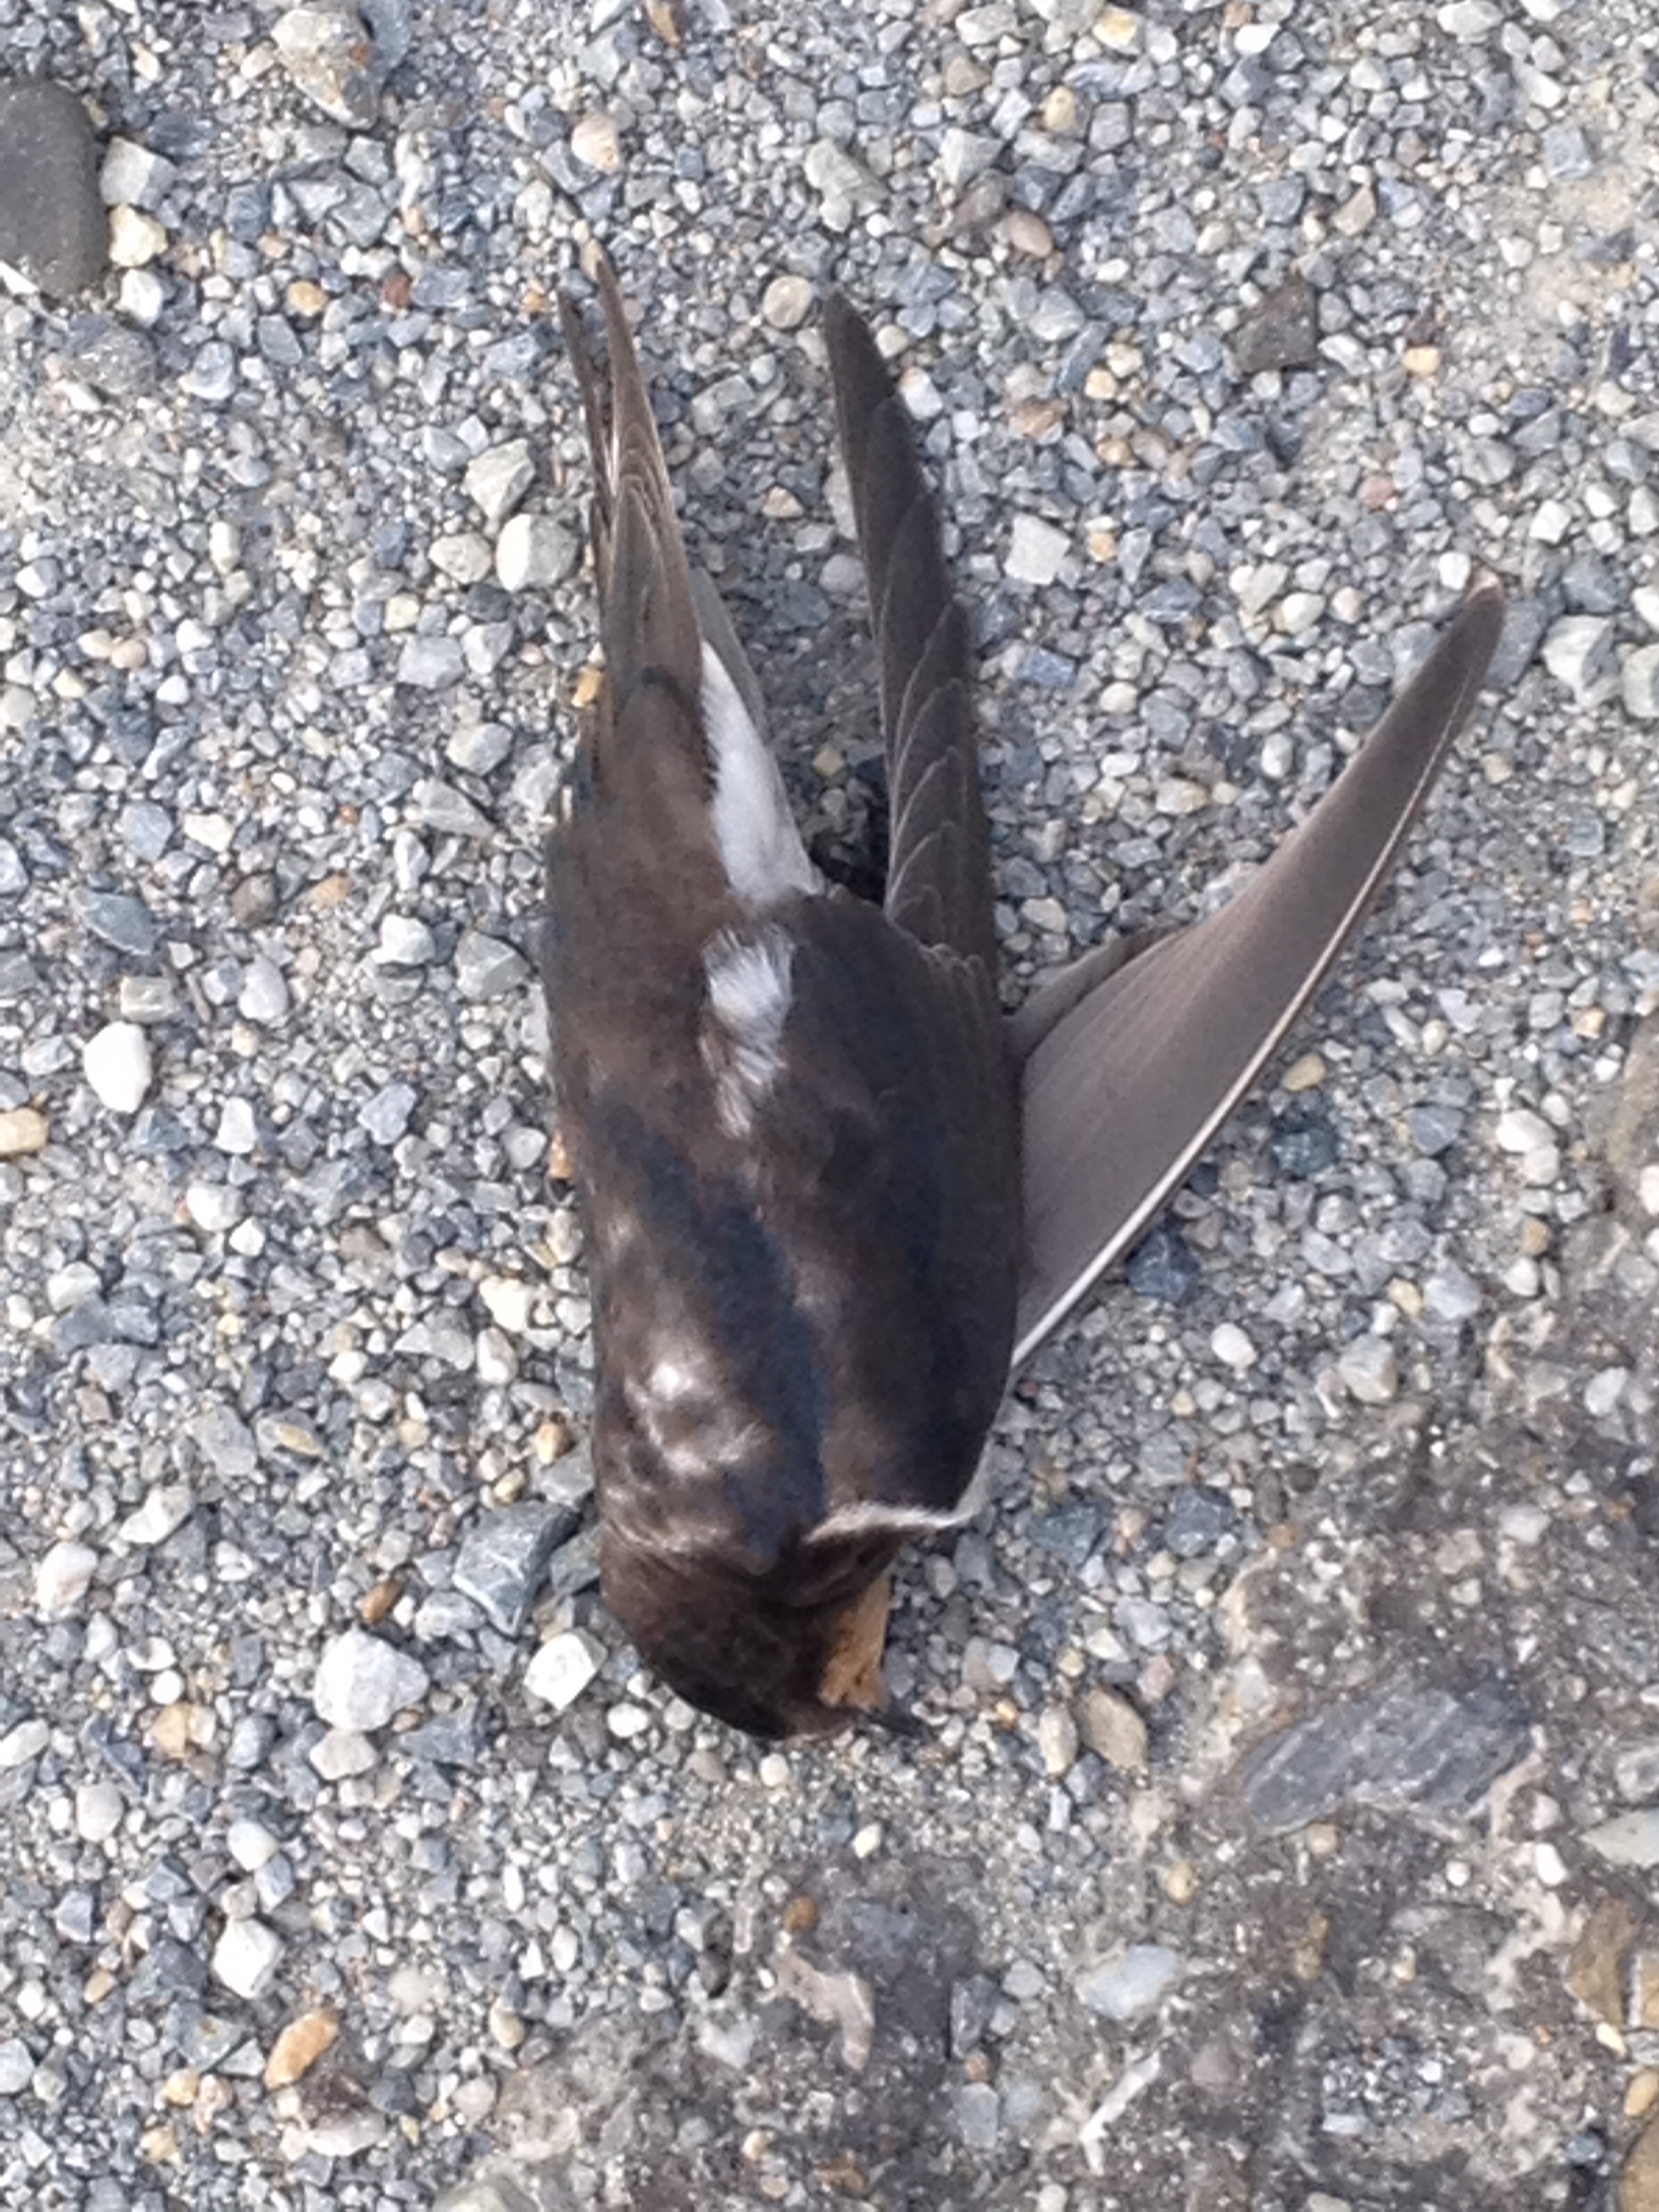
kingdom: Animalia
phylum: Chordata
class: Aves
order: Passeriformes
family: Hirundinidae
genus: Hirundo
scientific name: Hirundo rustica
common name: Barn swallow
